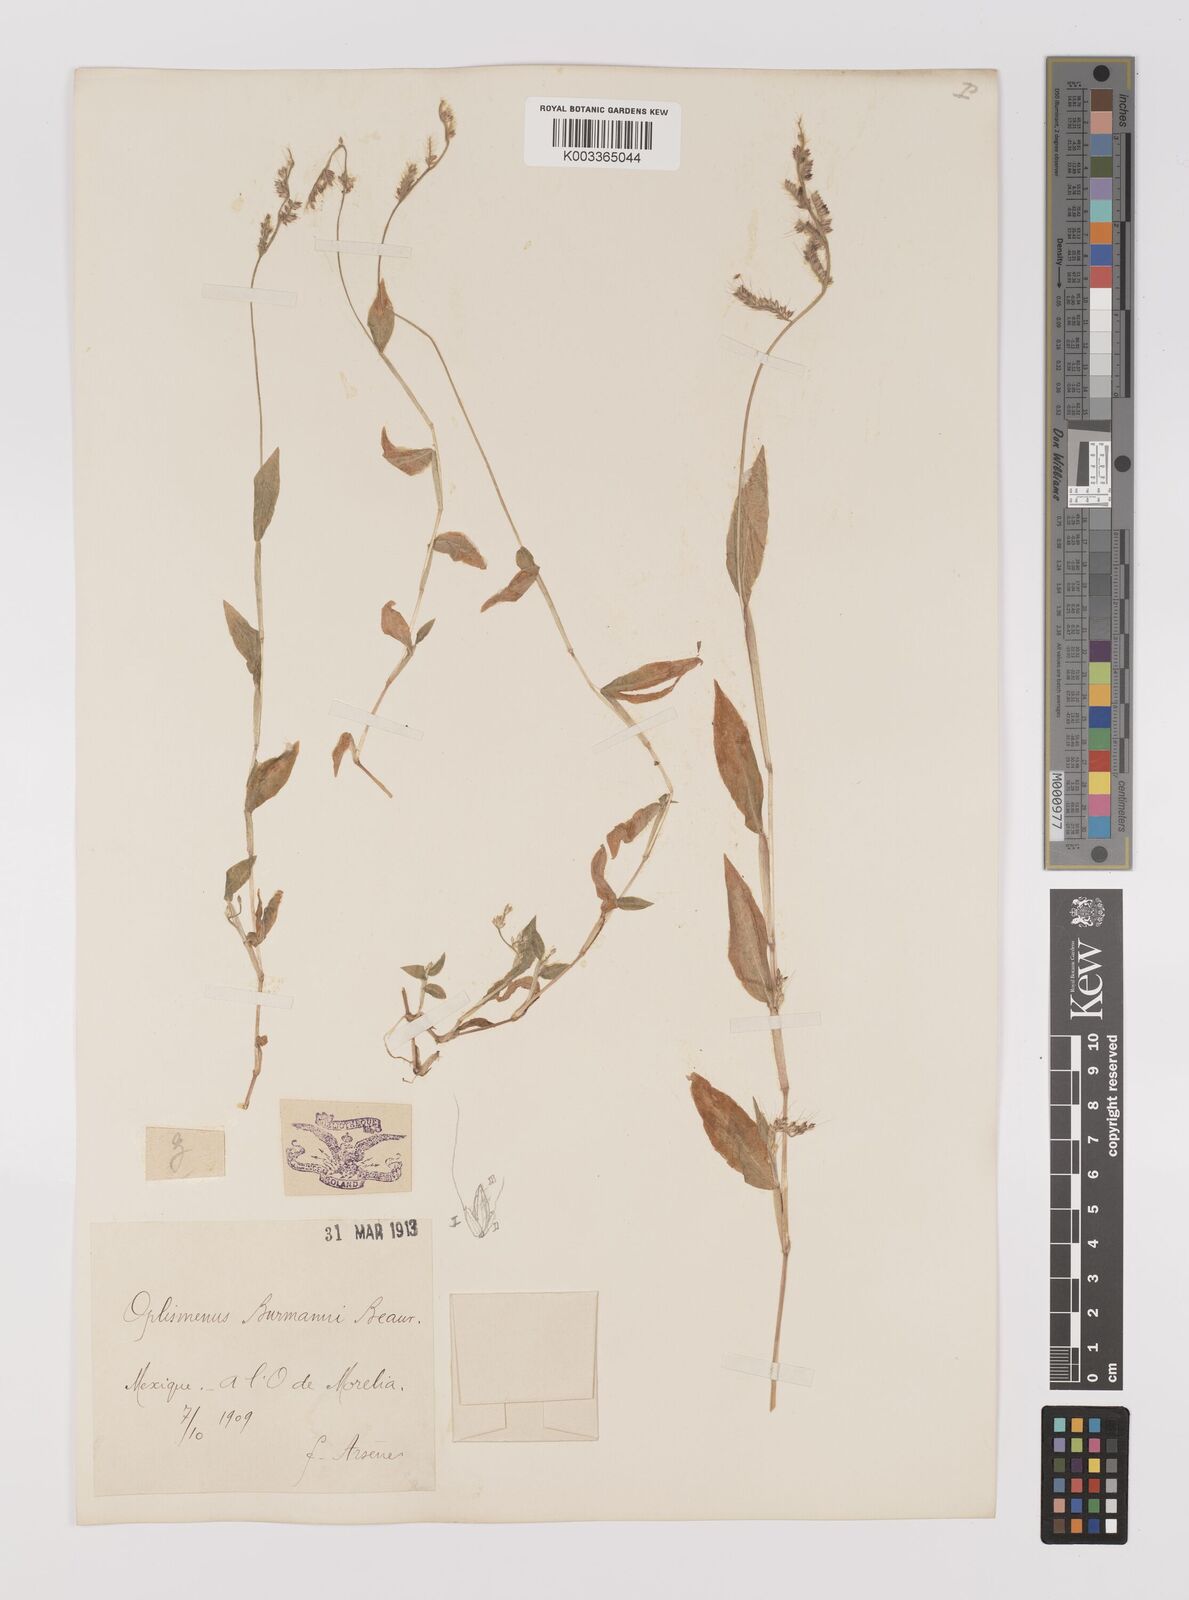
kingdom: Plantae
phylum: Tracheophyta
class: Liliopsida
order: Poales
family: Poaceae
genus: Oplismenus
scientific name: Oplismenus burmanni
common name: Burmann's basketgrass
